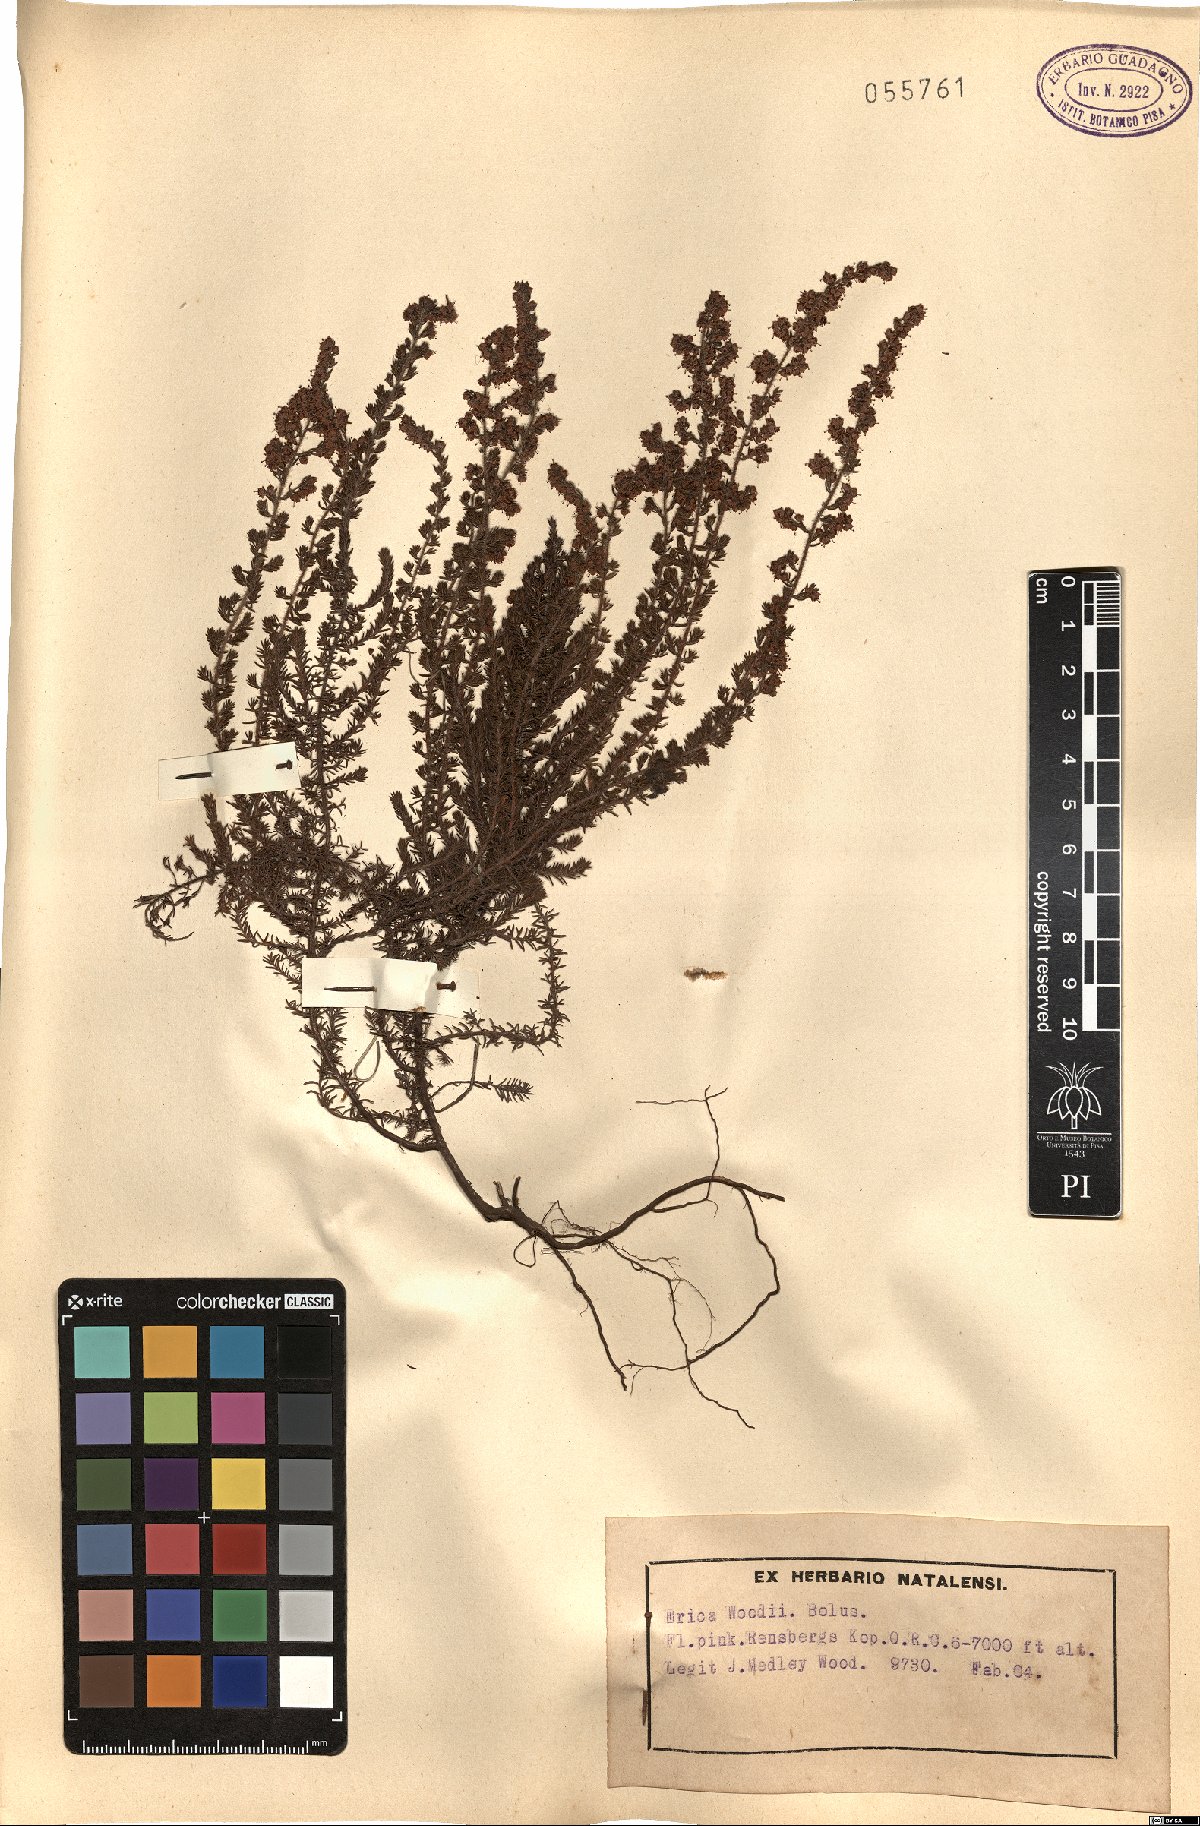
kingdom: Plantae
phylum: Tracheophyta
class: Magnoliopsida
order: Ericales
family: Ericaceae
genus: Erica
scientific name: Erica woodii
